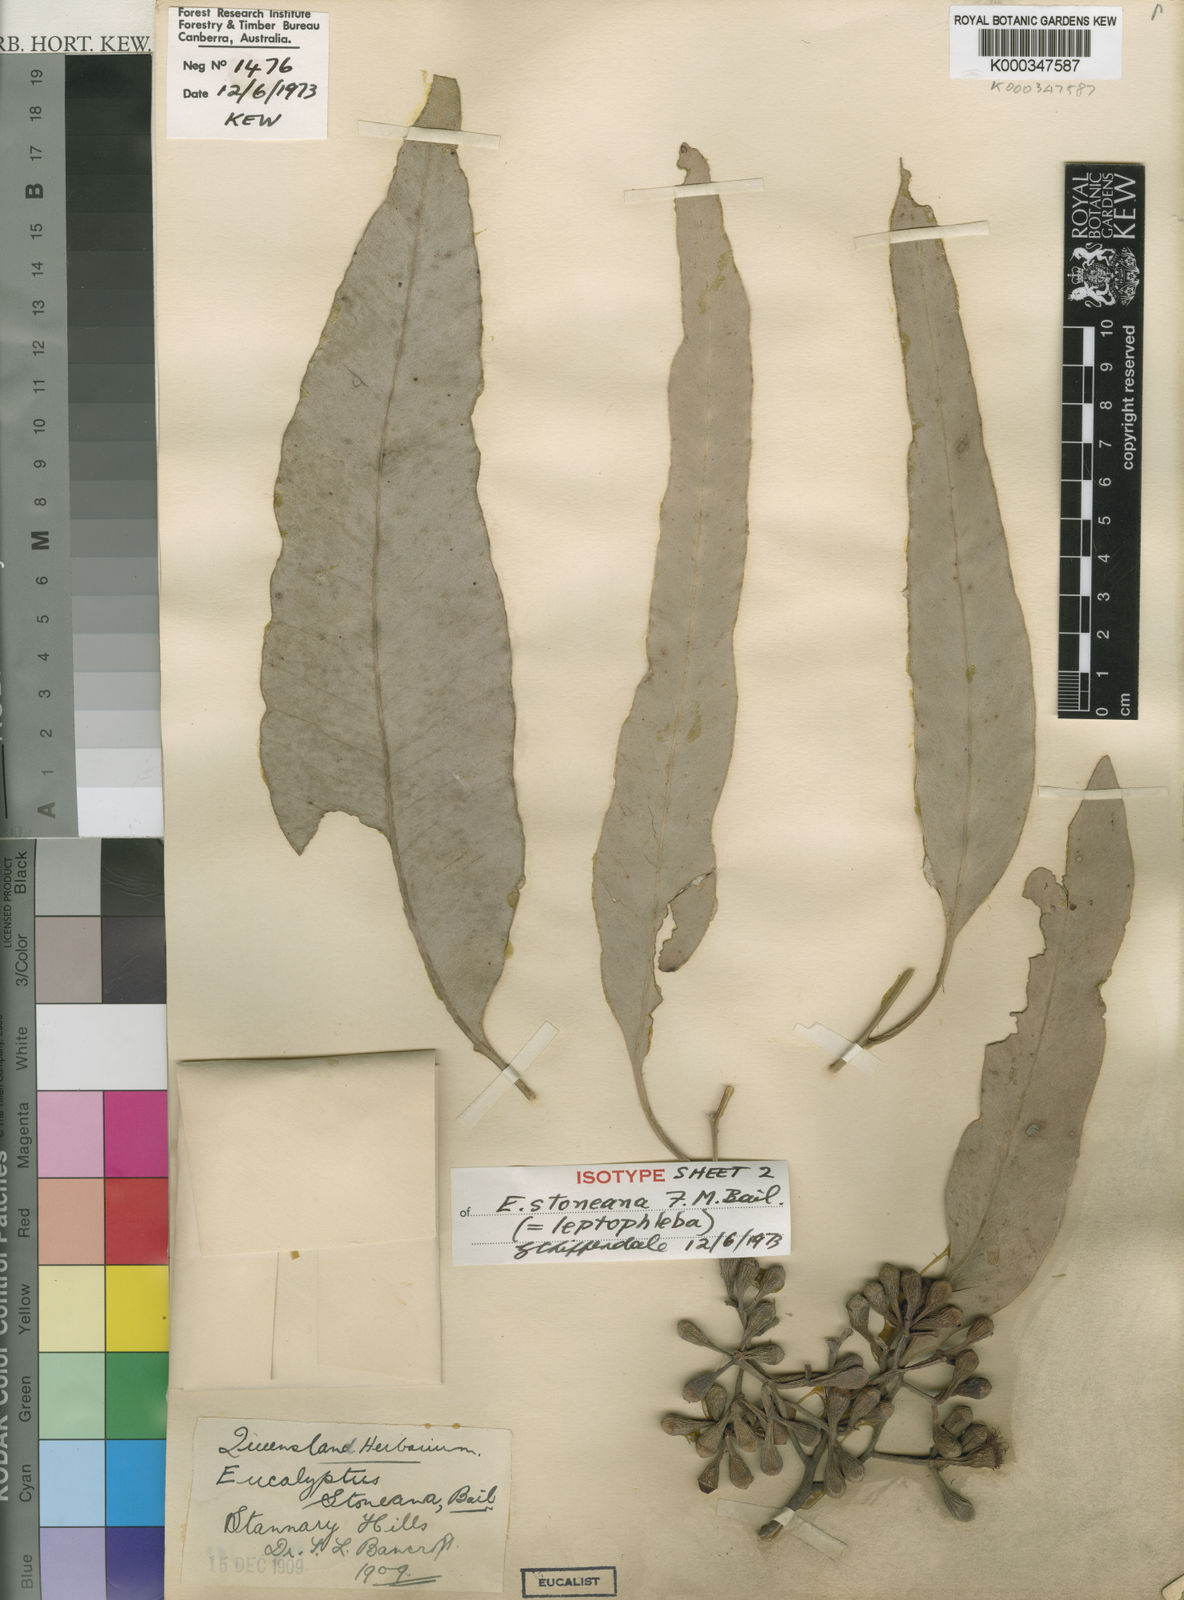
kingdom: Plantae
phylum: Tracheophyta
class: Magnoliopsida
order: Myrtales
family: Myrtaceae
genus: Eucalyptus
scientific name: Eucalyptus leptophleba
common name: Molloy-box
